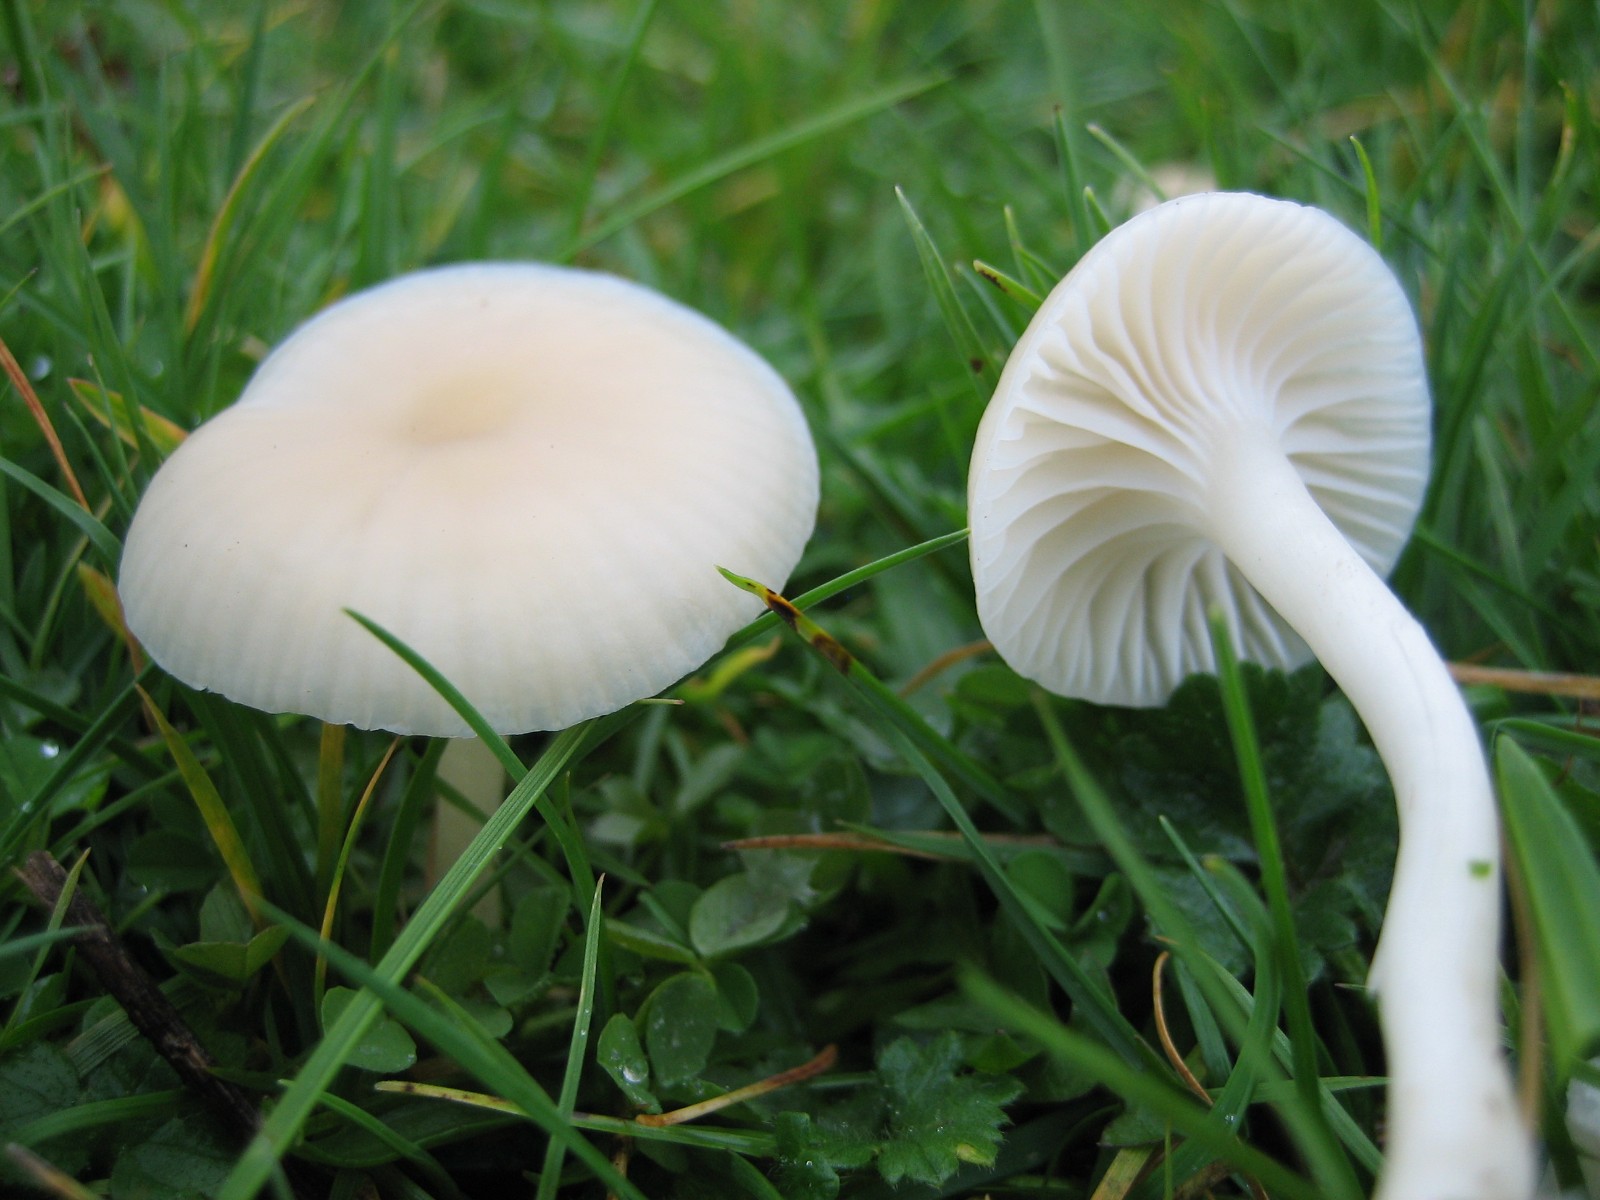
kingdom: Fungi
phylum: Basidiomycota
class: Agaricomycetes
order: Agaricales
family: Hygrophoraceae
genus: Cuphophyllus
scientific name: Cuphophyllus virgineus
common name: snehvid vokshat
